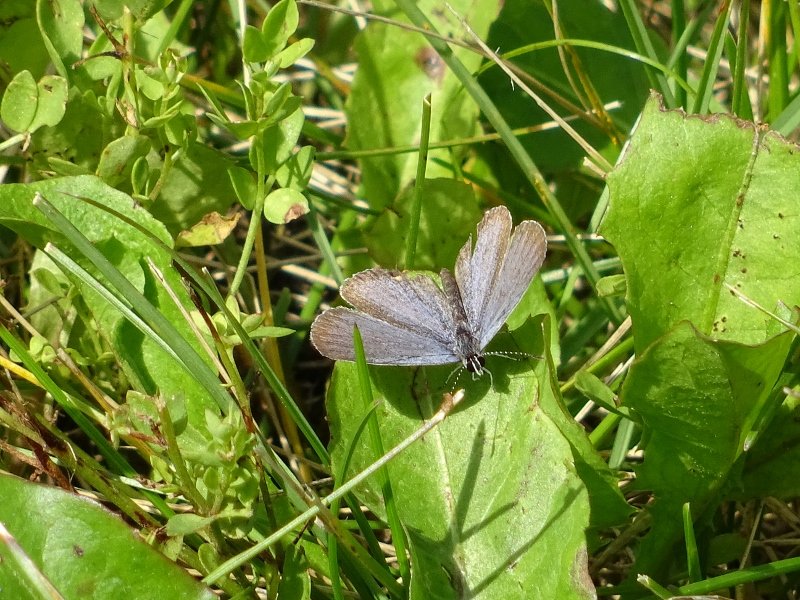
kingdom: Animalia
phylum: Arthropoda
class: Insecta
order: Lepidoptera
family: Lycaenidae
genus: Elkalyce
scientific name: Elkalyce comyntas
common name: Eastern Tailed-Blue
